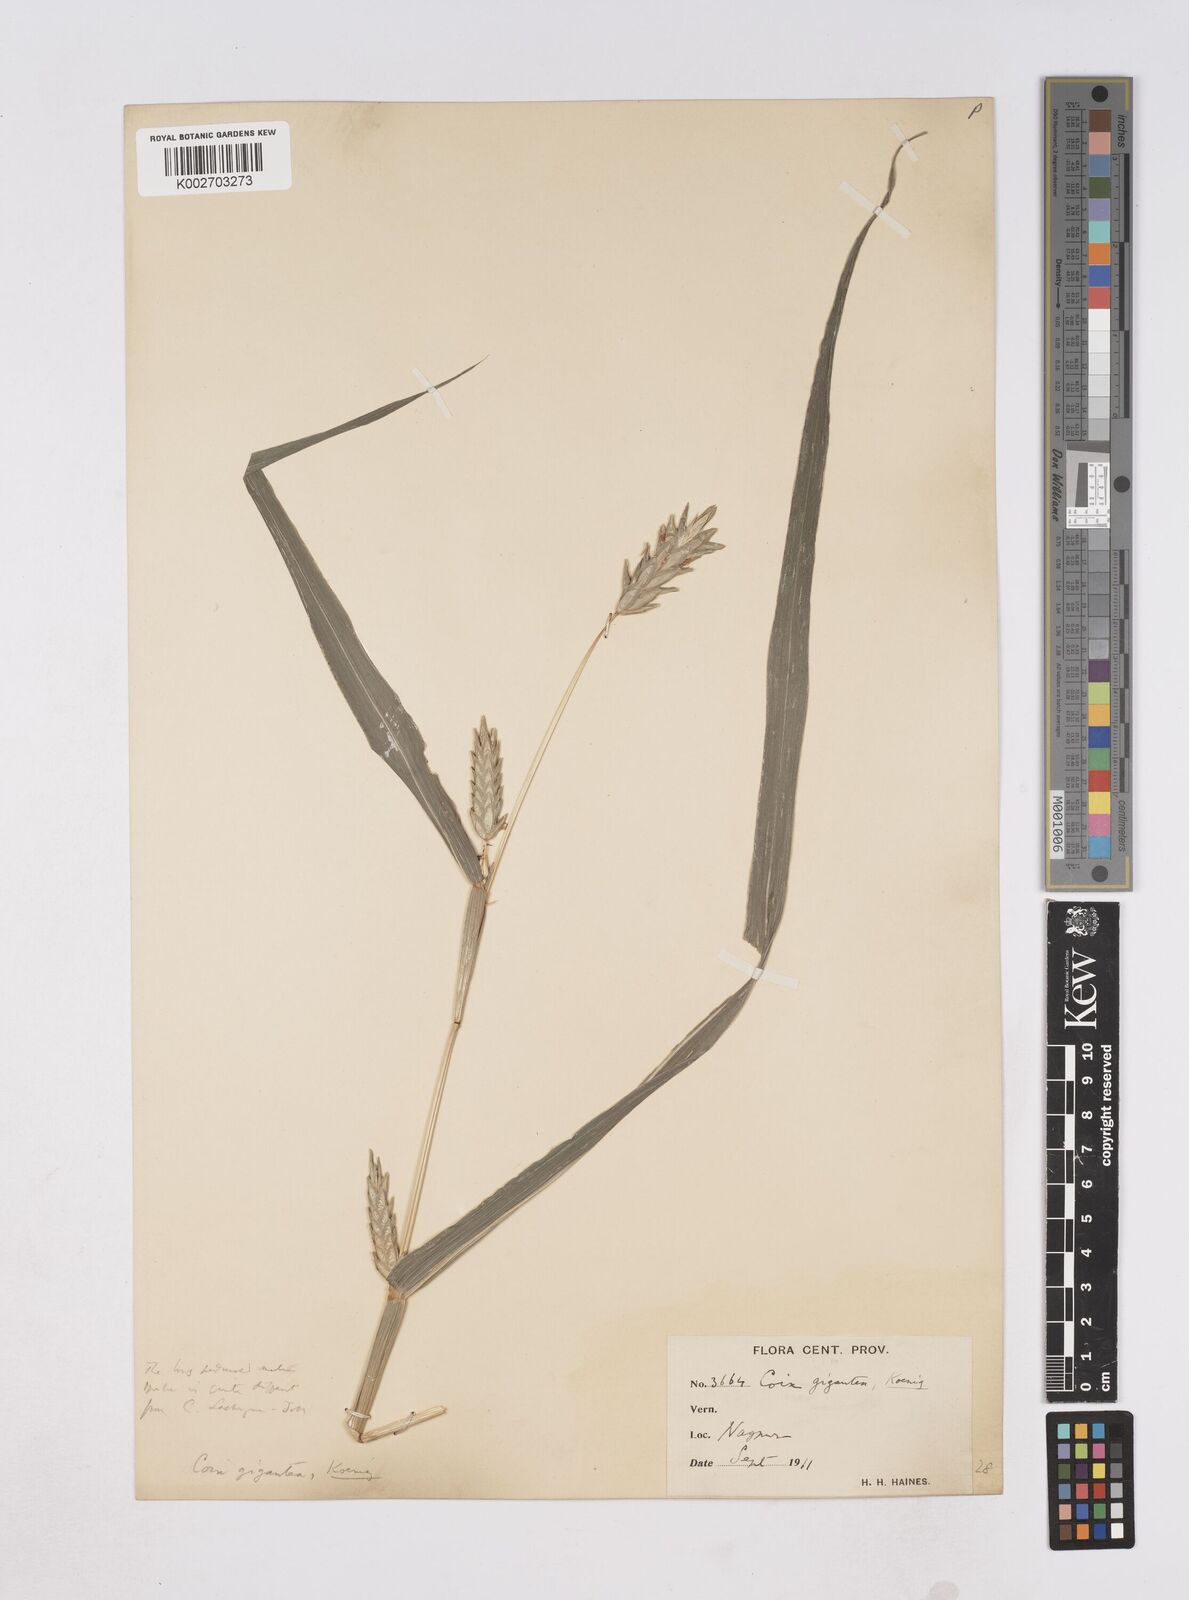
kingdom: Plantae
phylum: Tracheophyta
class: Liliopsida
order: Poales
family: Poaceae
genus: Coix
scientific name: Coix aquatica
